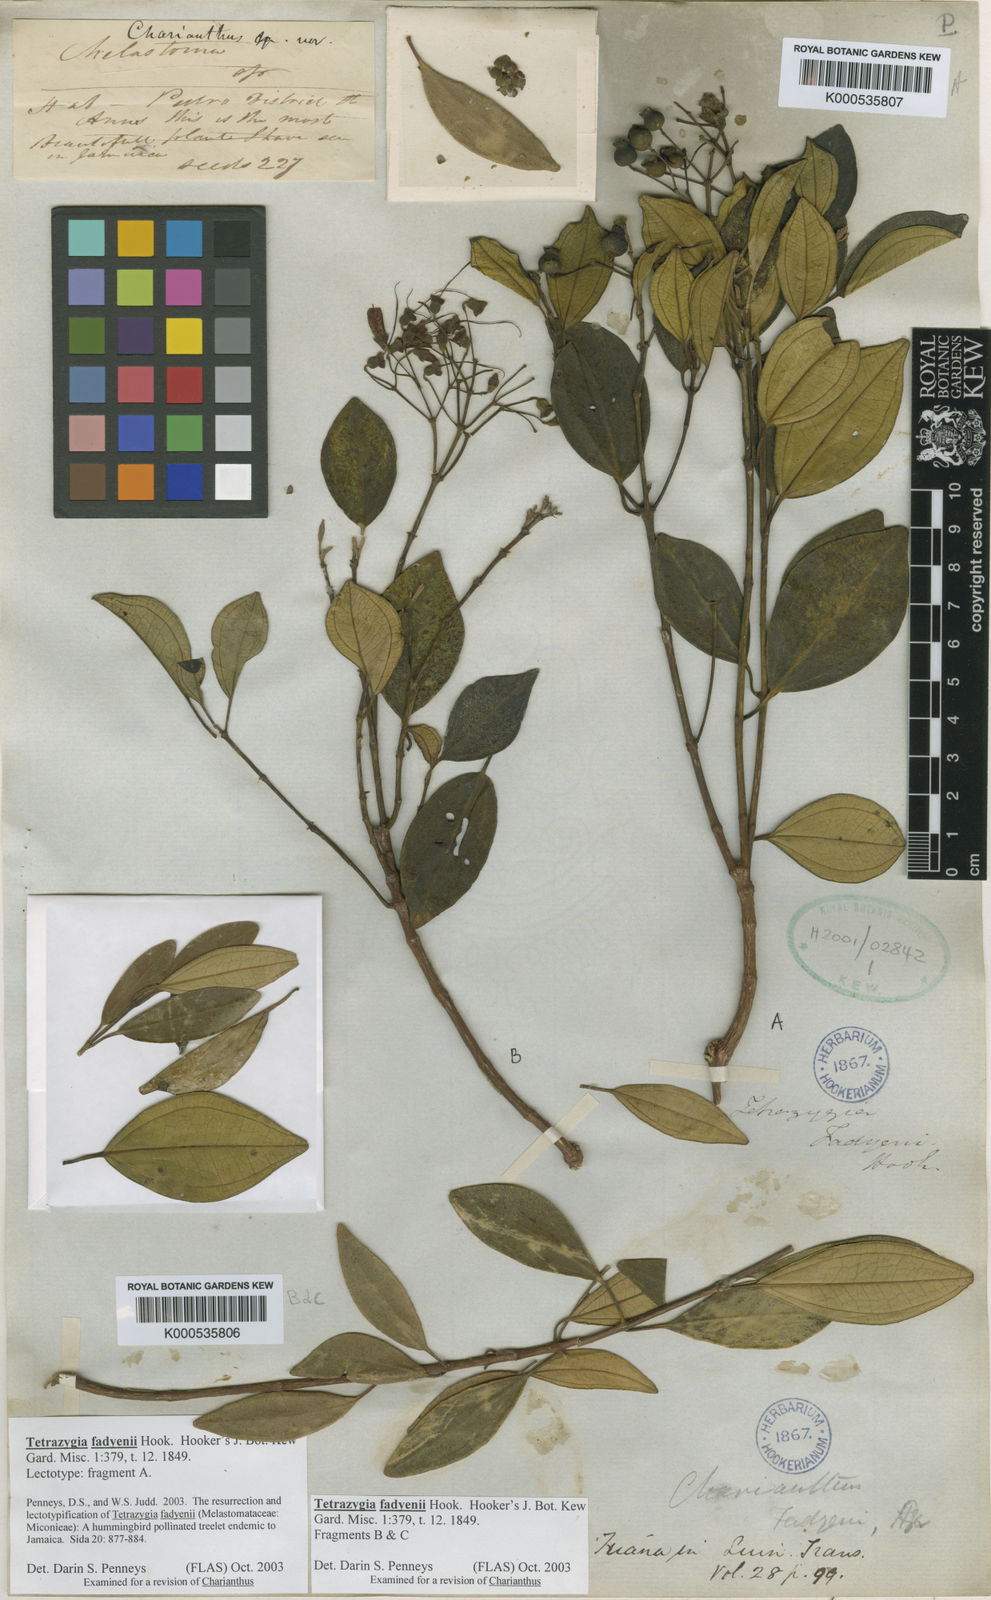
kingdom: Plantae
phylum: Tracheophyta
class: Magnoliopsida
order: Myrtales
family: Melastomataceae
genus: Miconia
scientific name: Miconia fadyenii
